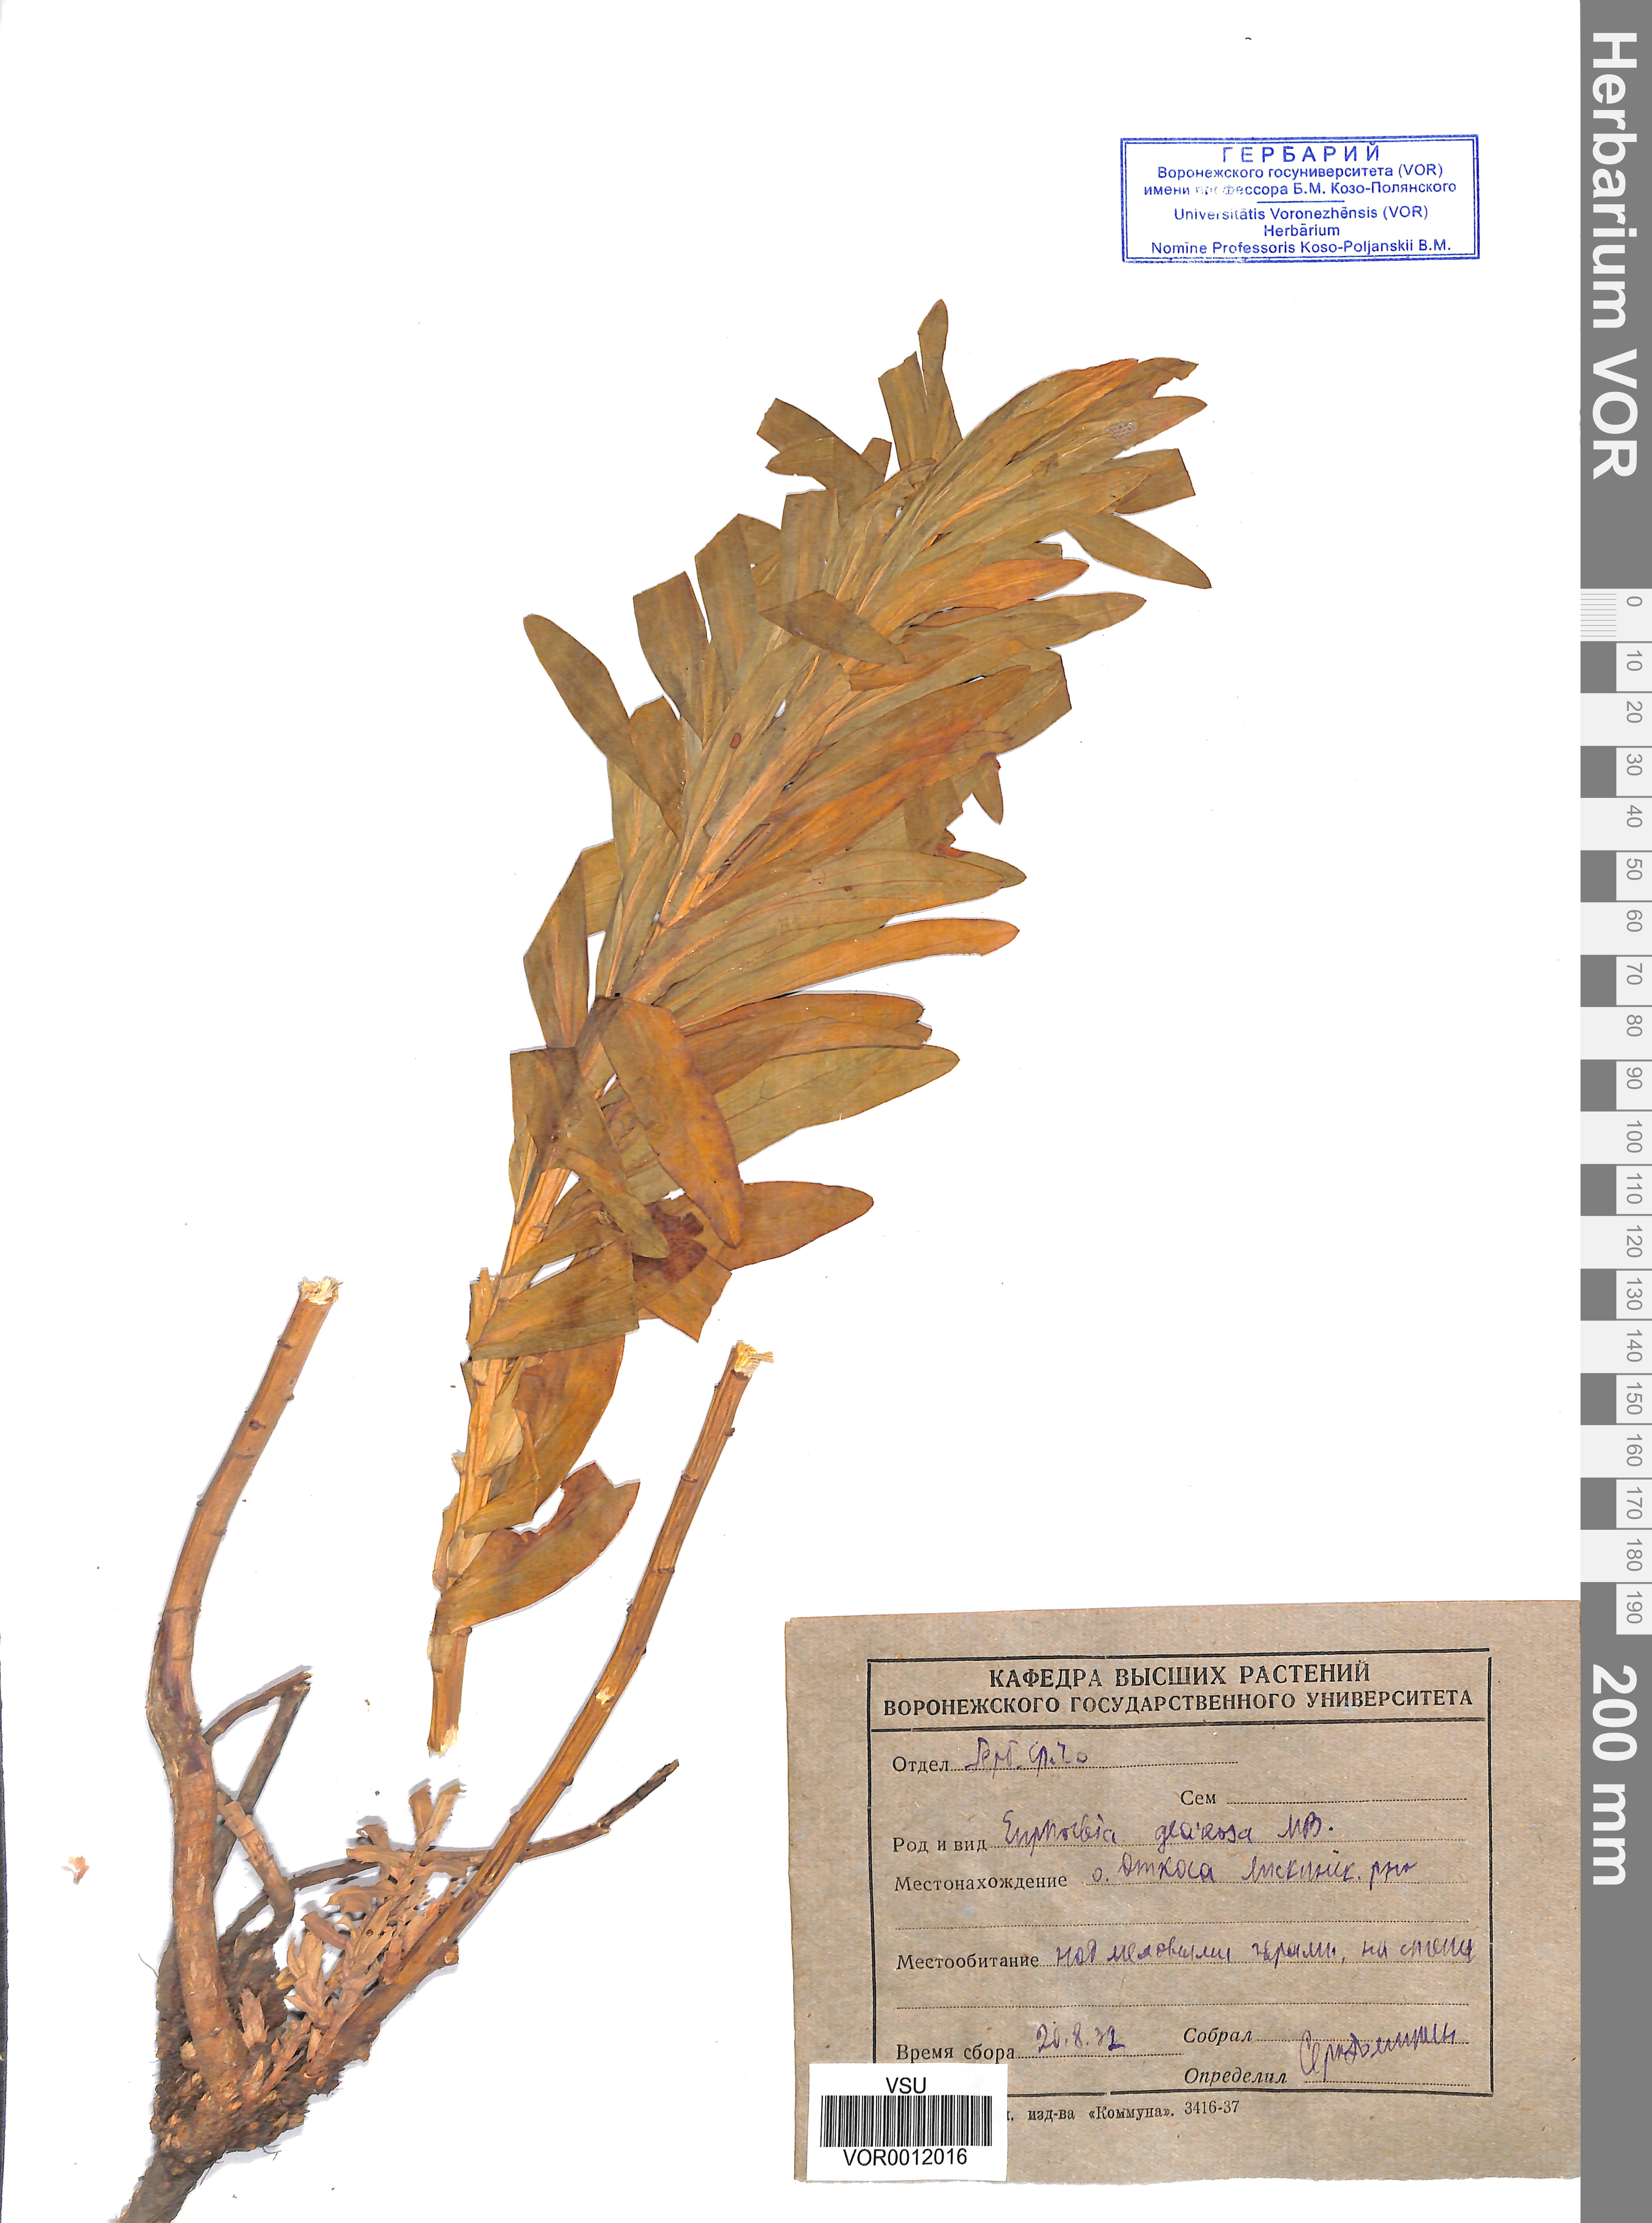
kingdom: Plantae
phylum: Tracheophyta
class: Magnoliopsida
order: Malpighiales
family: Euphorbiaceae
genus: Euphorbia
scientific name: Euphorbia stepposa
